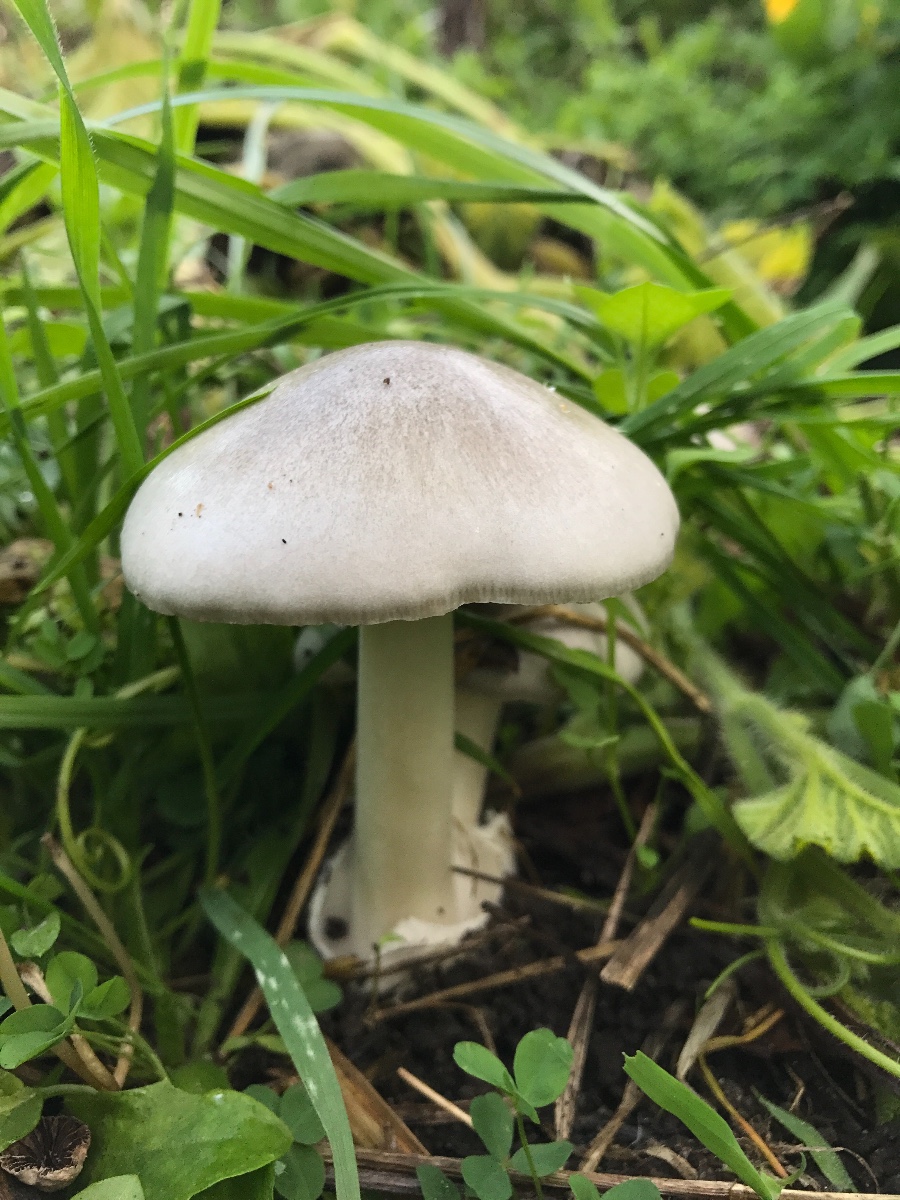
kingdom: Fungi
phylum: Basidiomycota
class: Agaricomycetes
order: Agaricales
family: Pluteaceae
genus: Volvopluteus
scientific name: Volvopluteus gloiocephalus
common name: høj posesvamp
